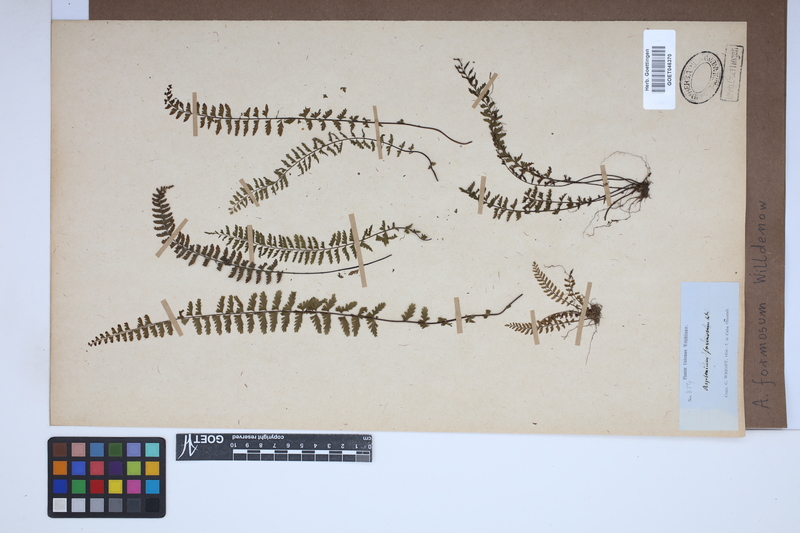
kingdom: Plantae
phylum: Tracheophyta
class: Polypodiopsida
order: Polypodiales
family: Aspleniaceae
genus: Asplenium
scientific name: Asplenium formosum
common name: Showy spleenwort
